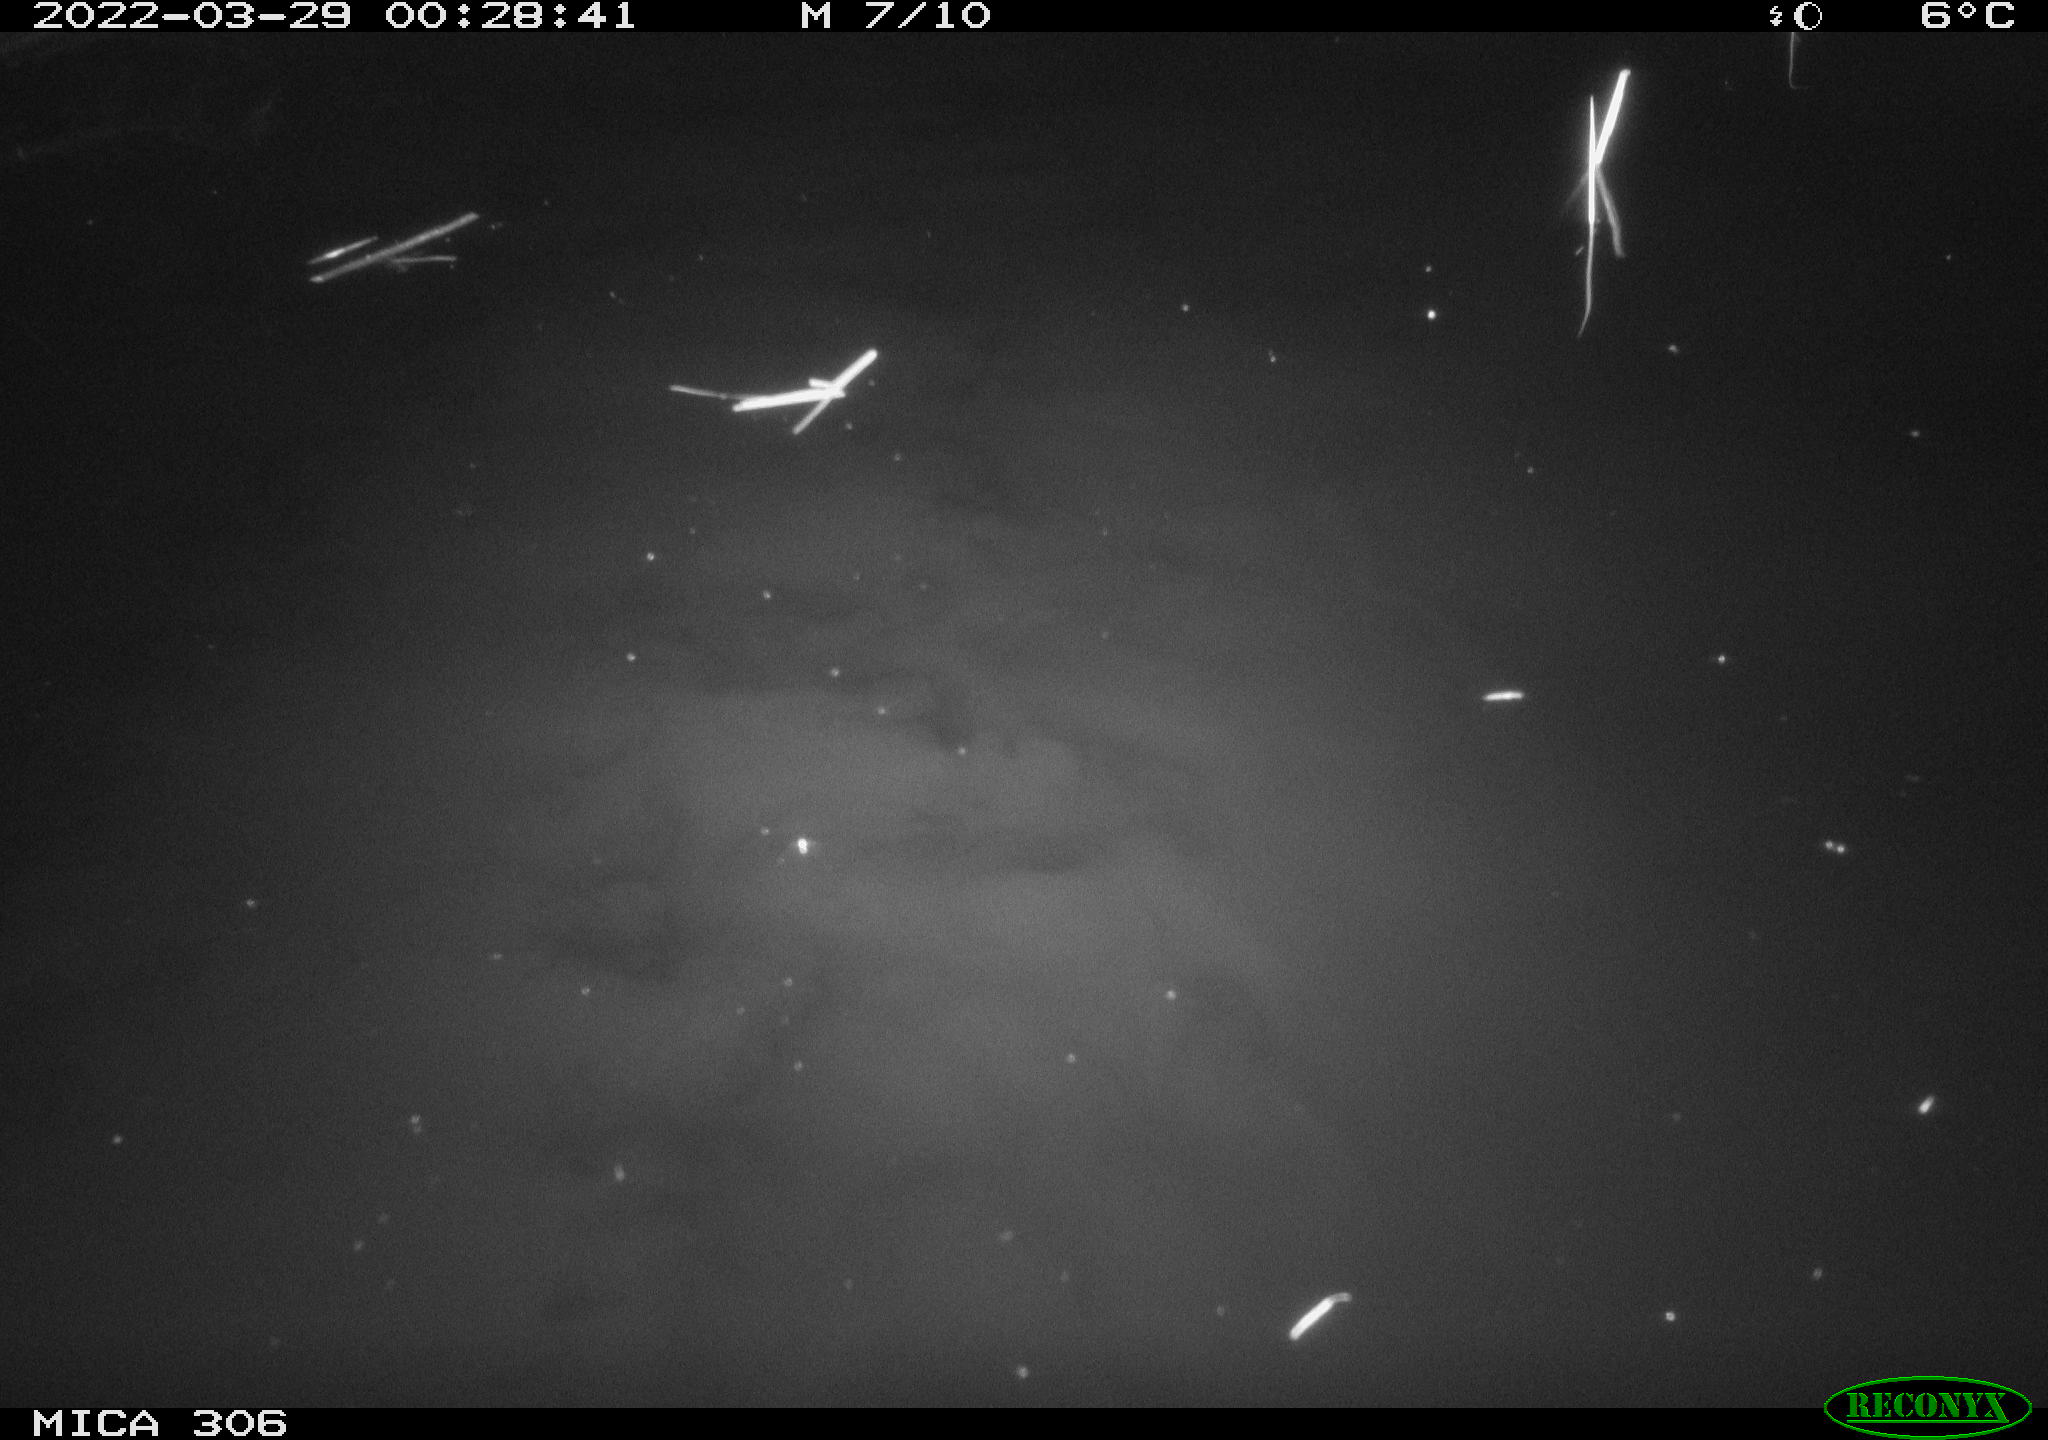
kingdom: Animalia
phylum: Chordata
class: Mammalia
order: Rodentia
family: Cricetidae
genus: Ondatra
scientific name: Ondatra zibethicus
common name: Muskrat
